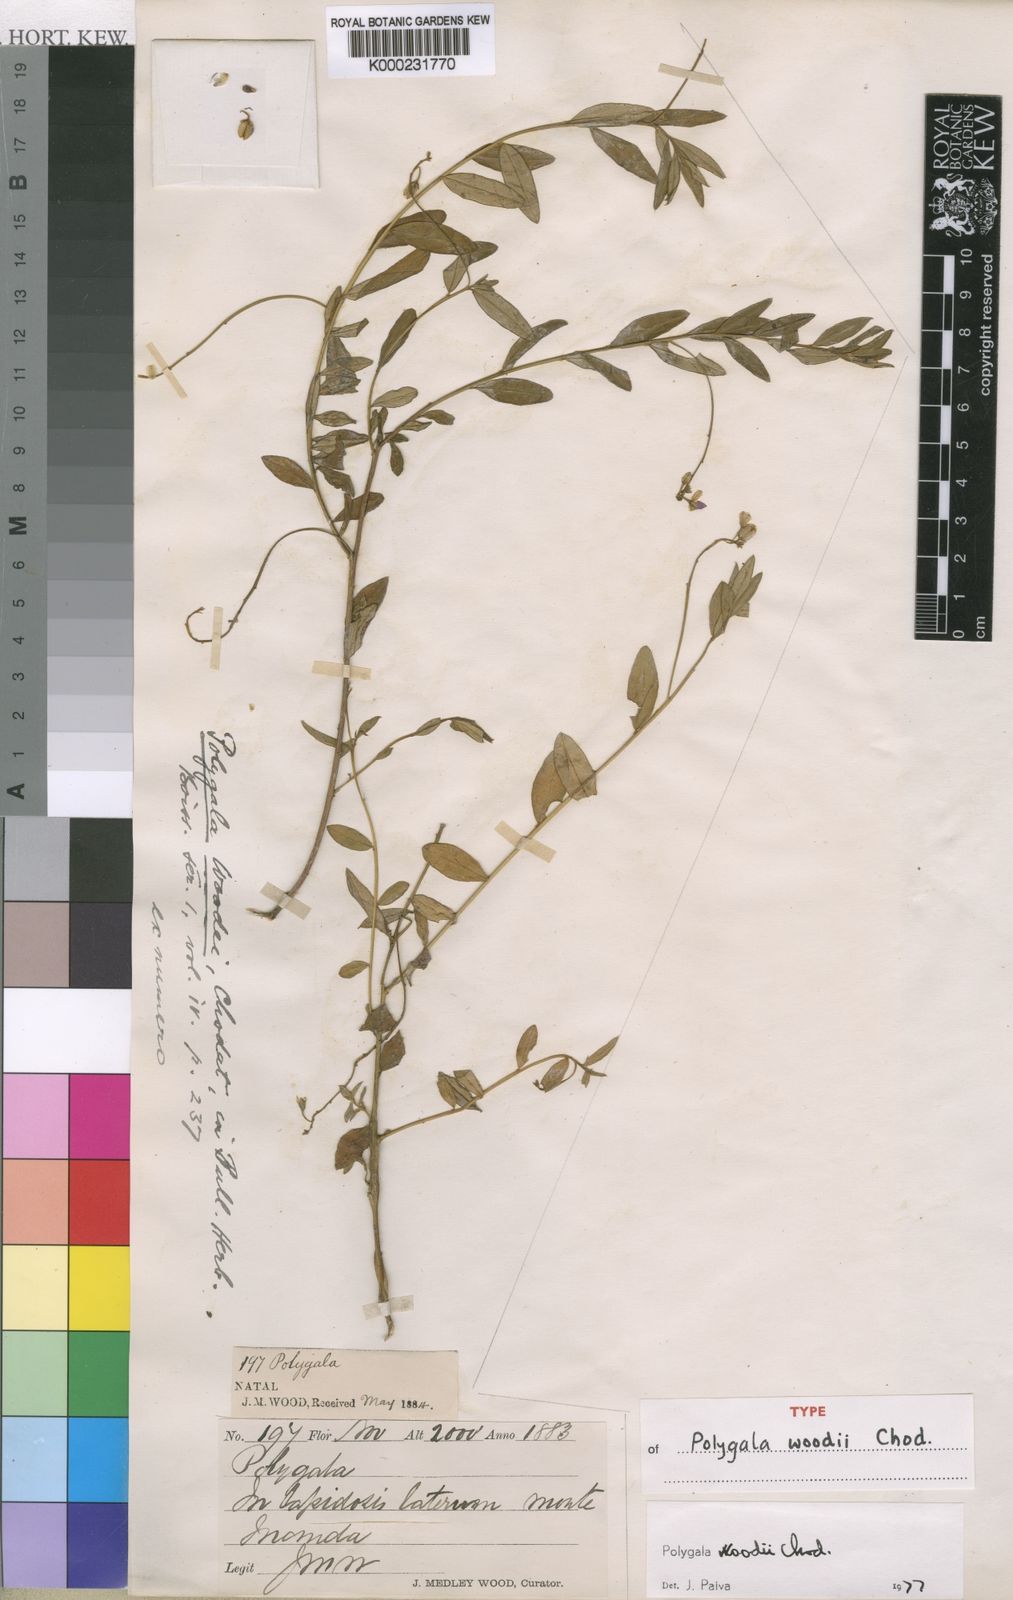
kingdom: Plantae
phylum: Tracheophyta
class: Magnoliopsida
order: Fabales
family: Polygalaceae
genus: Polygala
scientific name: Polygala woodii
